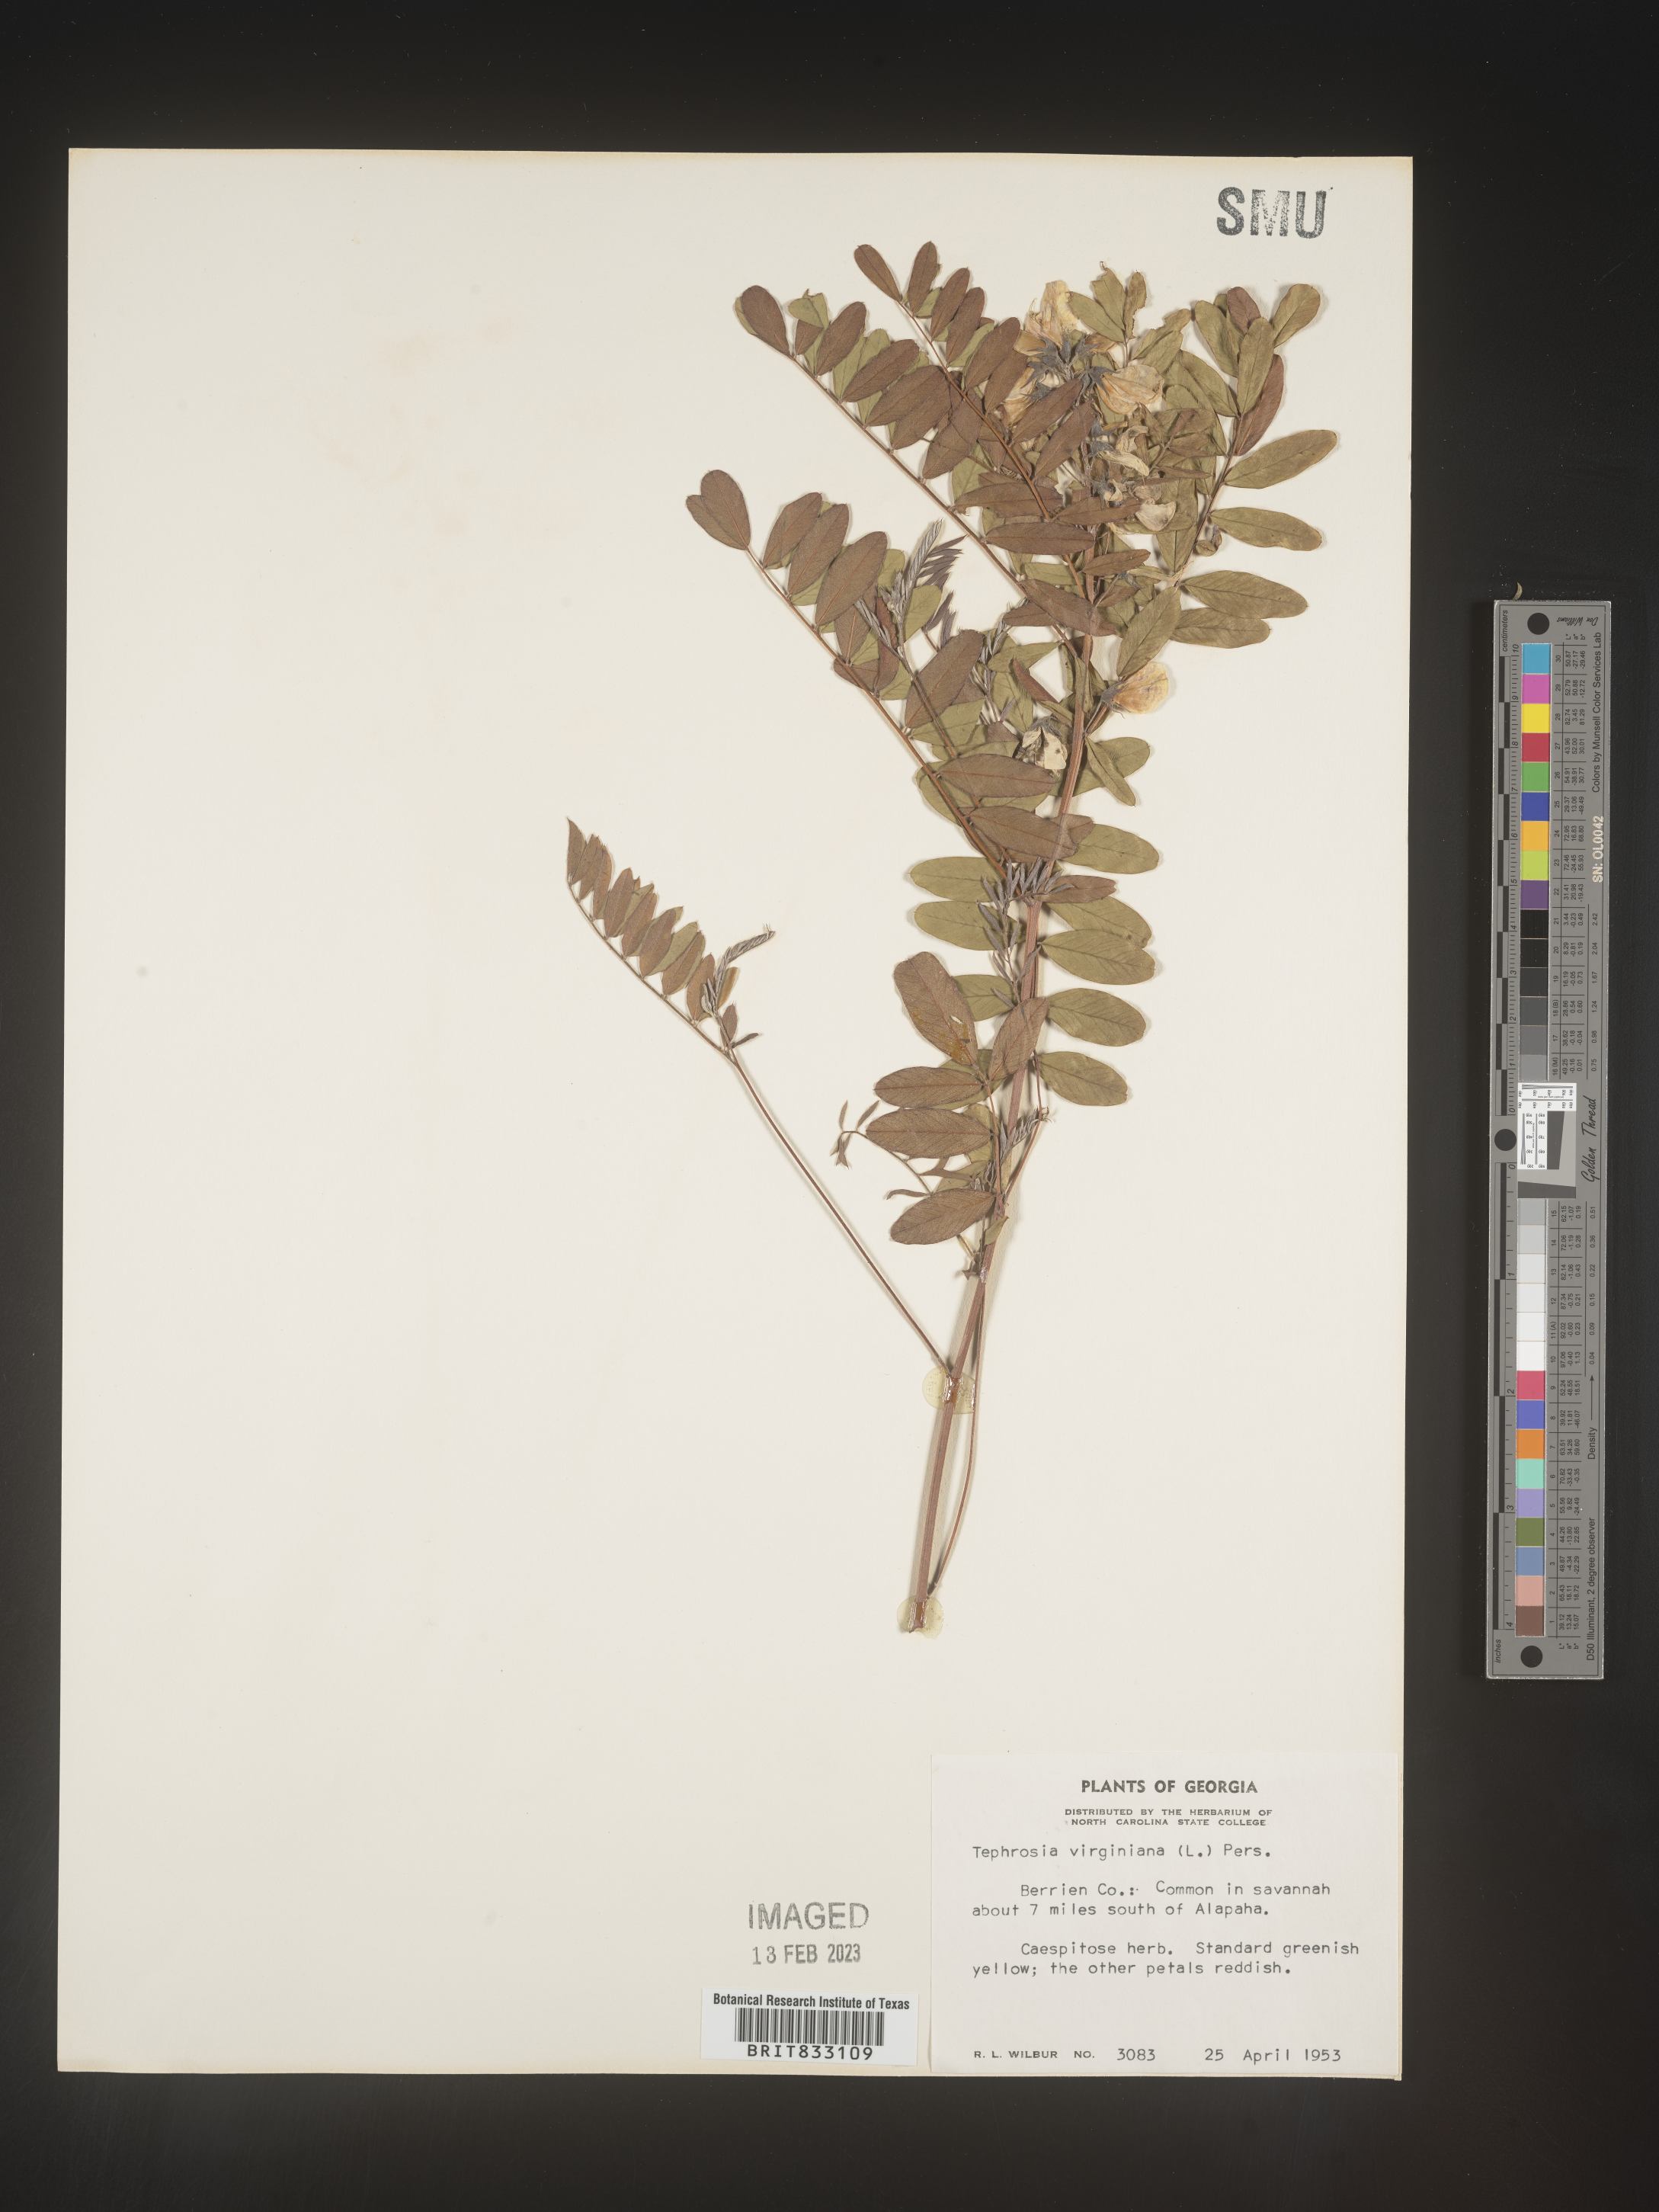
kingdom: Plantae
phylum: Tracheophyta
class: Magnoliopsida
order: Fabales
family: Fabaceae
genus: Tephrosia
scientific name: Tephrosia virginiana
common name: Rabbit-pea
